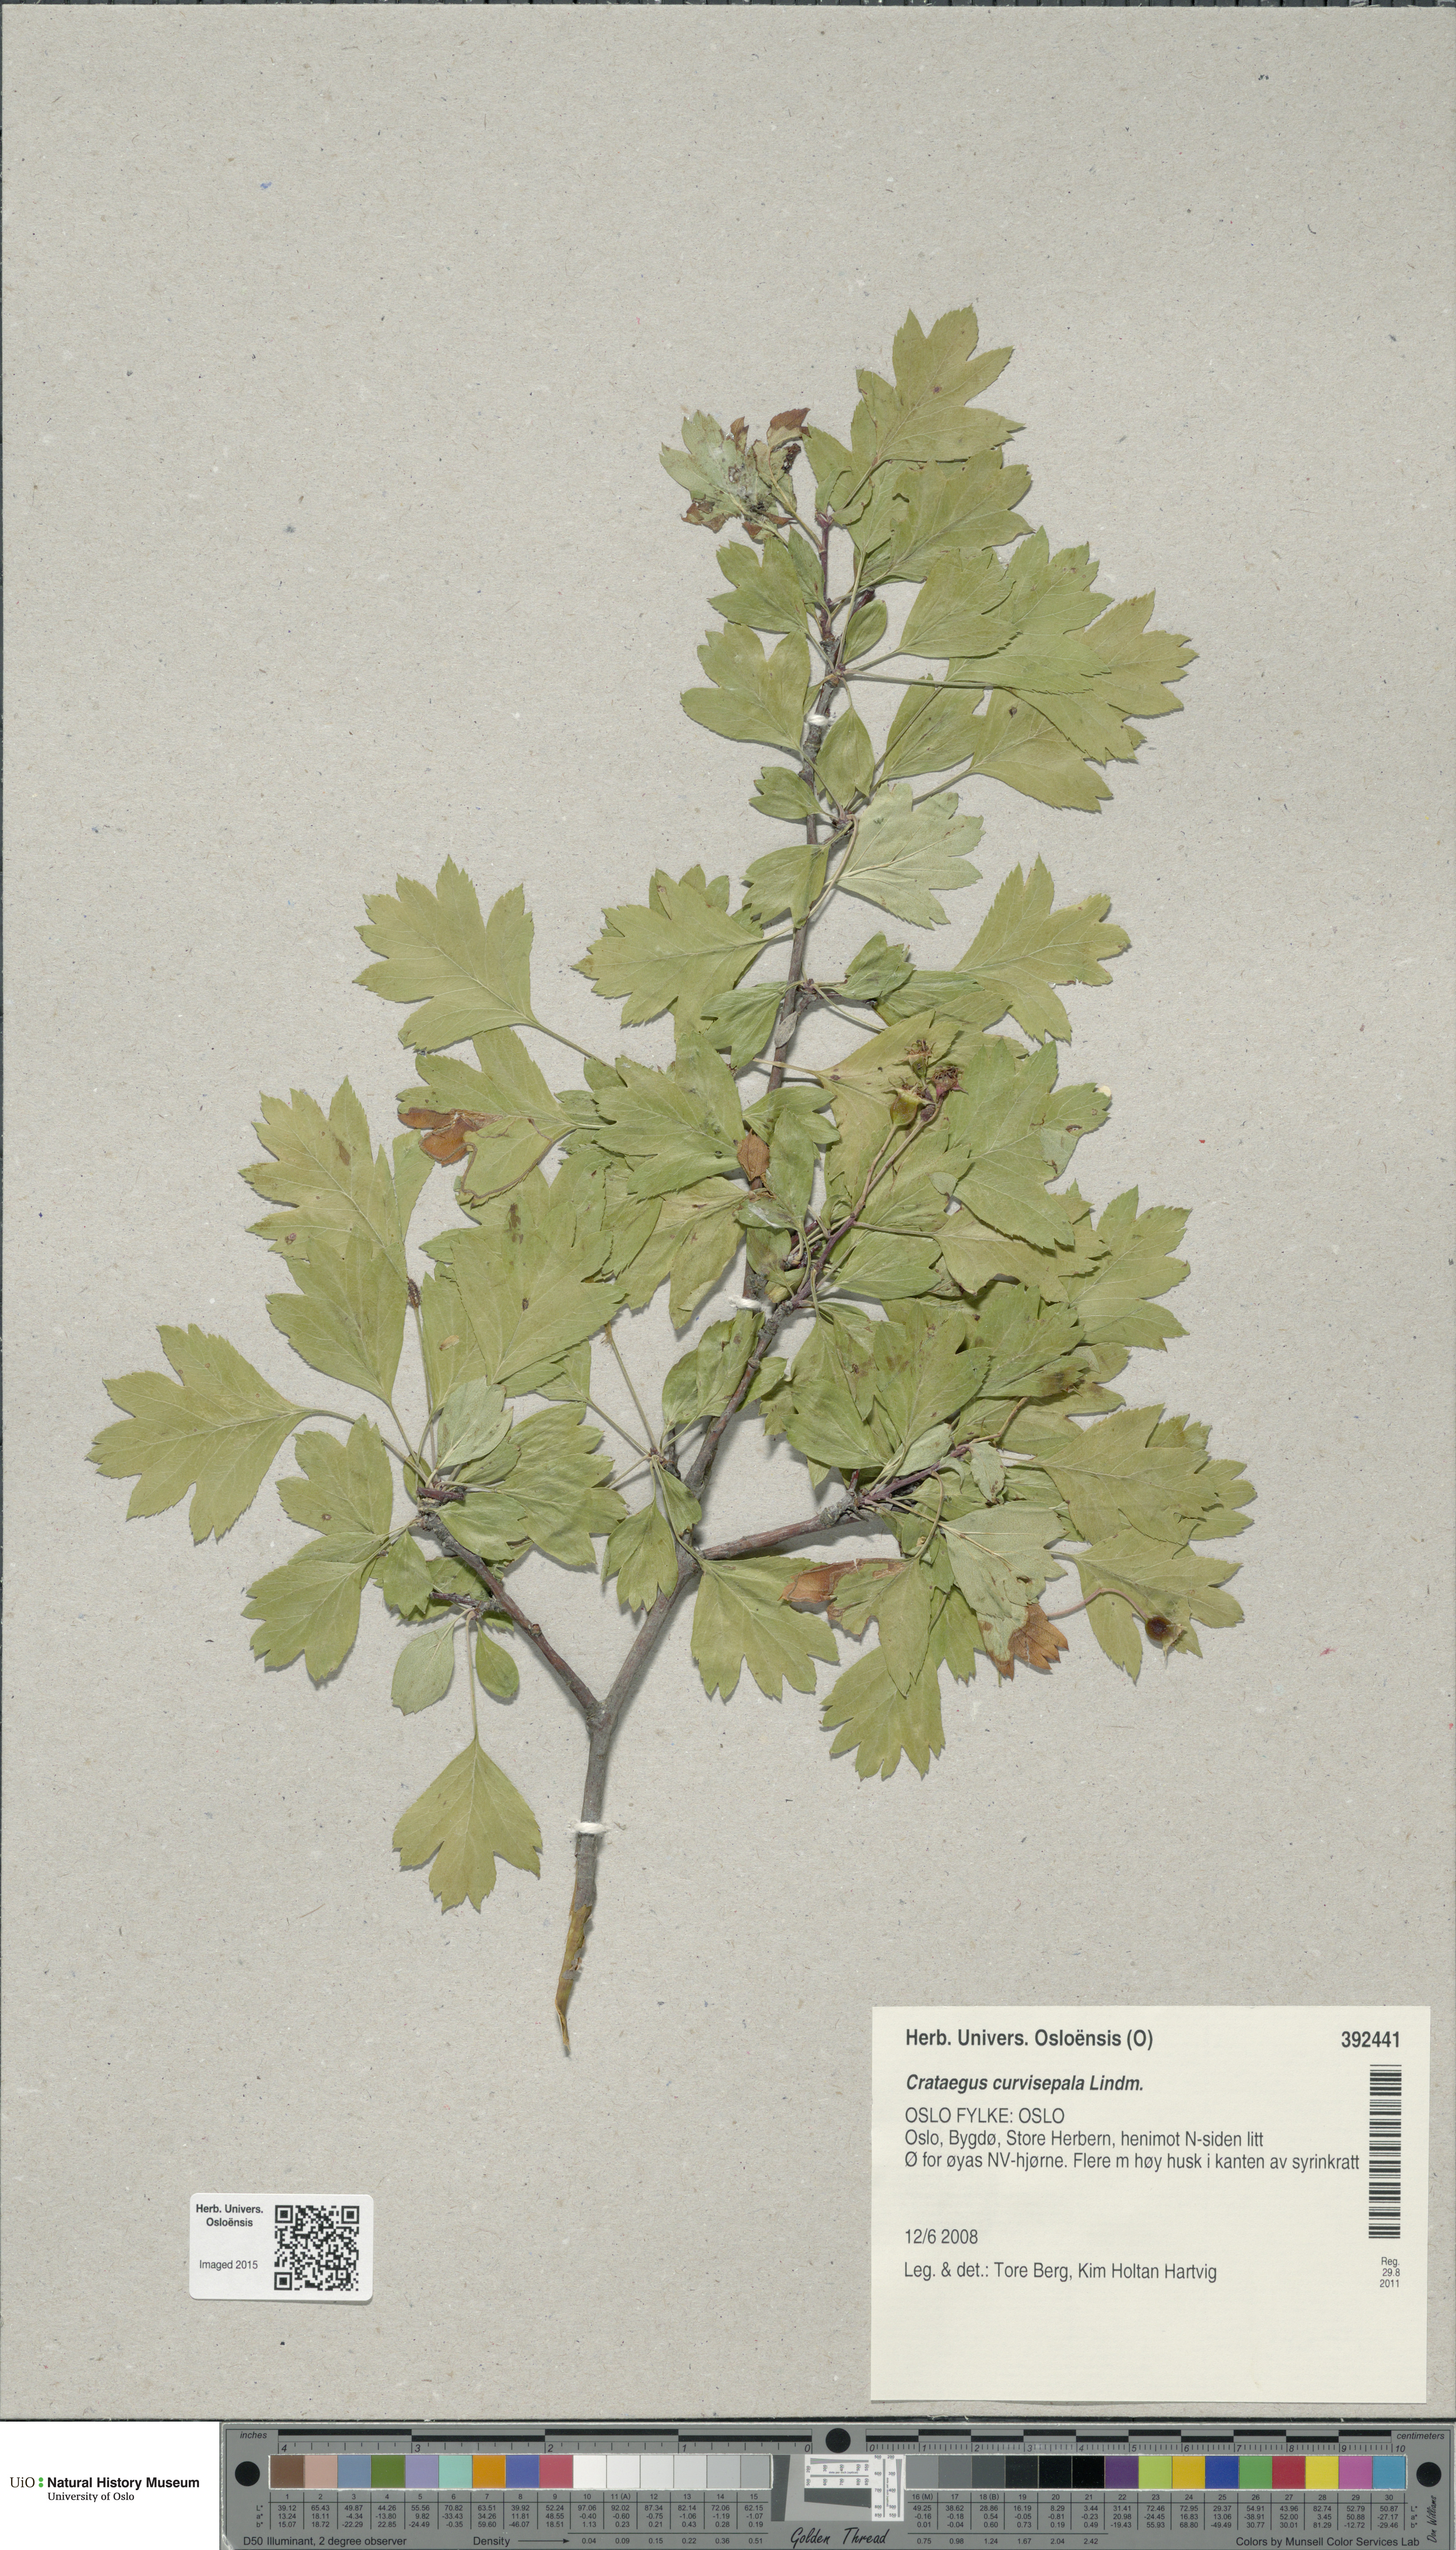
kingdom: Plantae
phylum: Tracheophyta
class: Magnoliopsida
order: Rosales
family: Rosaceae
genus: Crataegus
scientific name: Crataegus rhipidophylla
